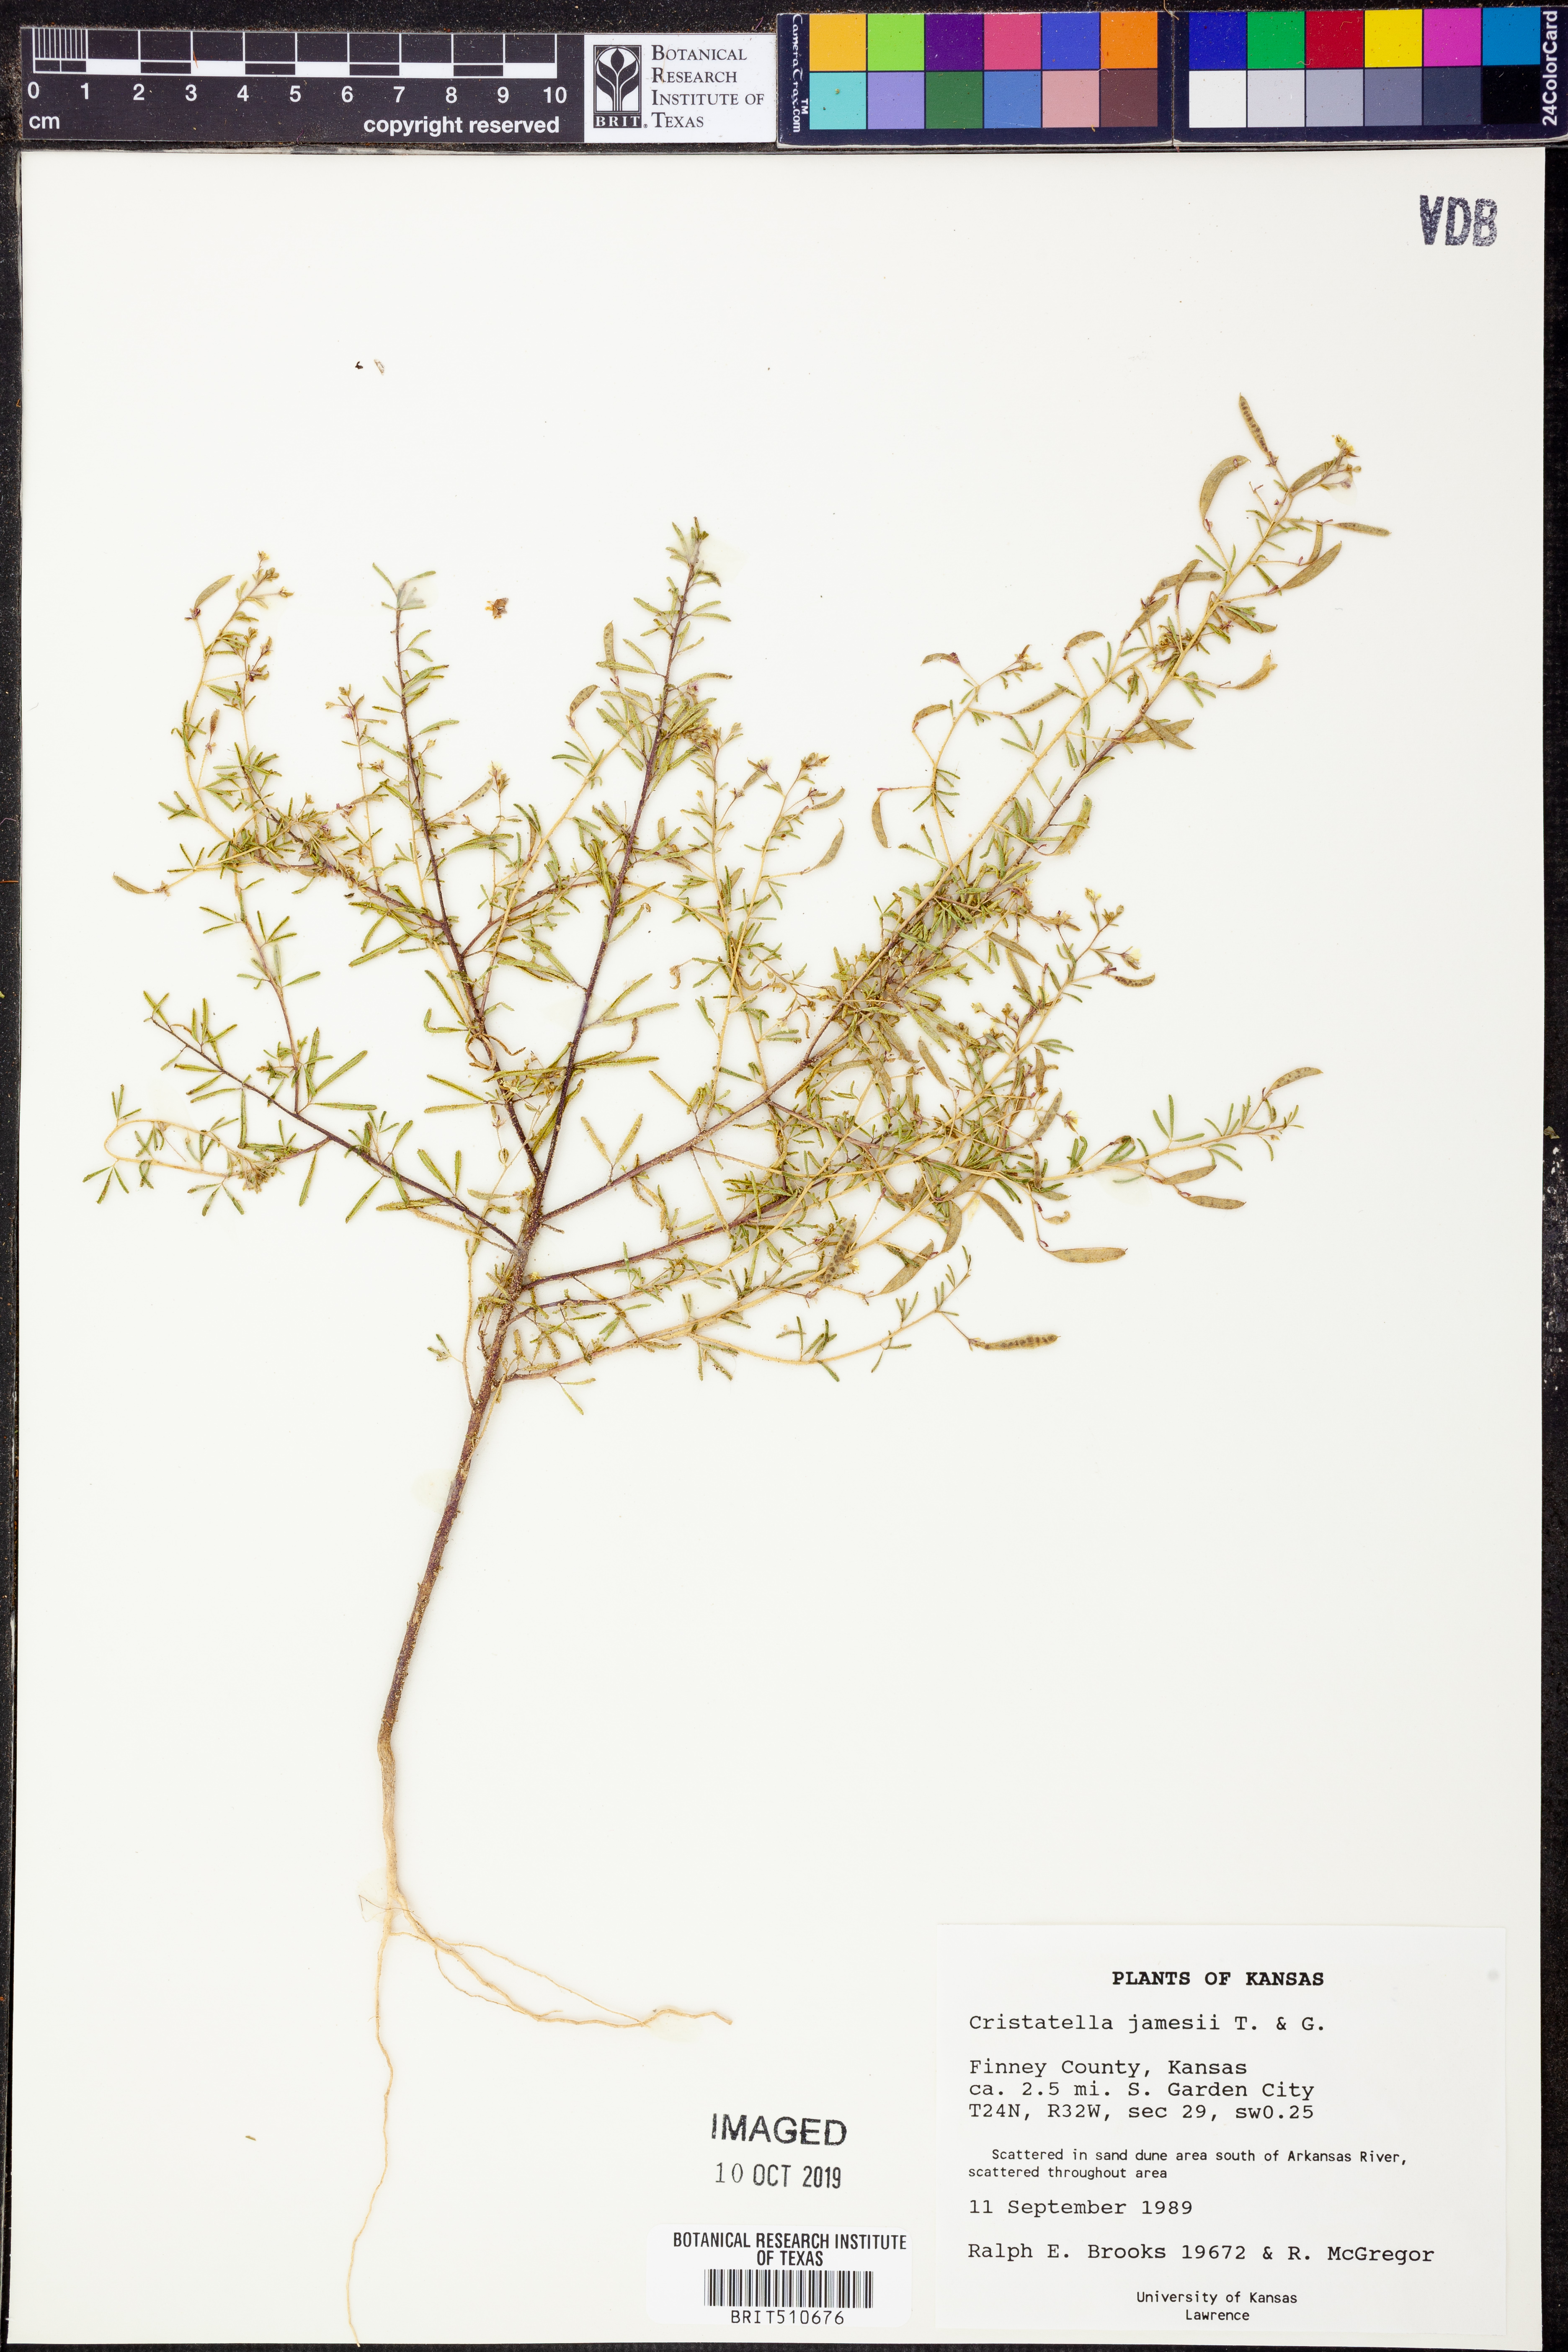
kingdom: Plantae
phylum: Tracheophyta
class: Magnoliopsida
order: Brassicales
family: Cleomaceae
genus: Polanisia
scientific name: Polanisia jamesii
